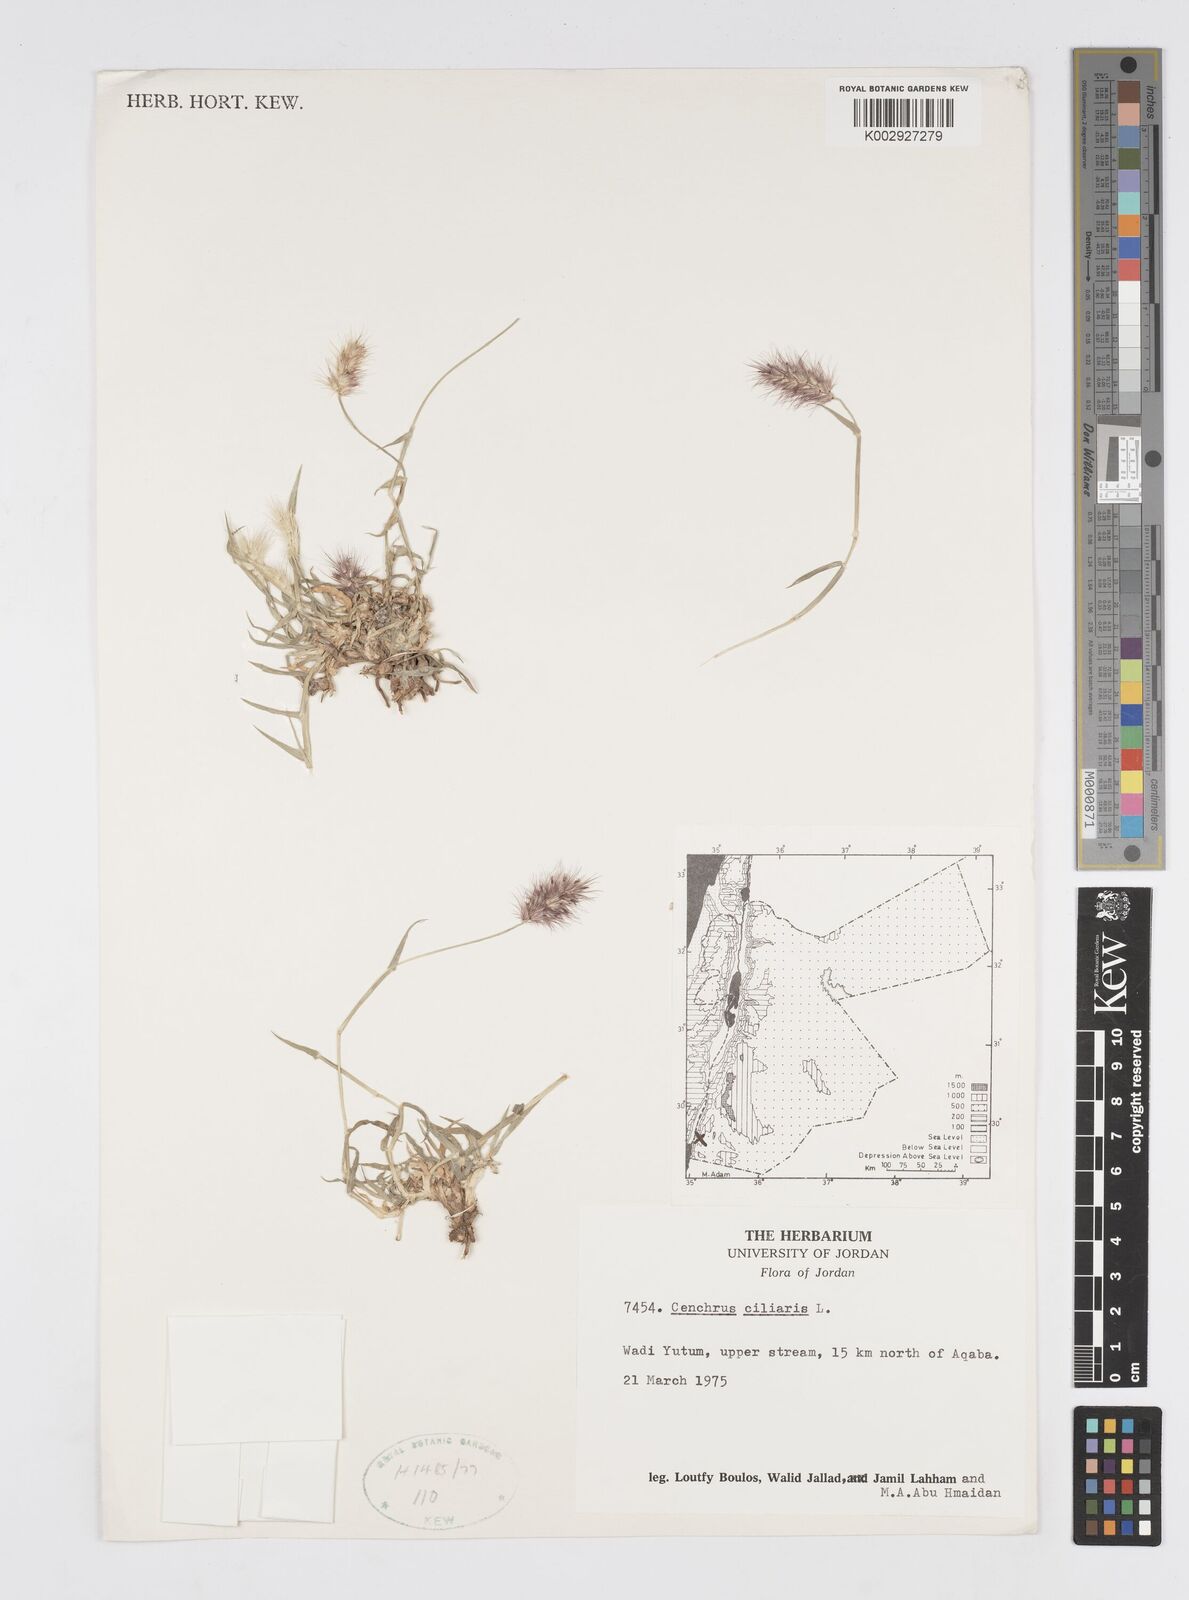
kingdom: Plantae
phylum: Tracheophyta
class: Liliopsida
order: Poales
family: Poaceae
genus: Cenchrus
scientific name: Cenchrus ciliaris
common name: Buffelgrass
